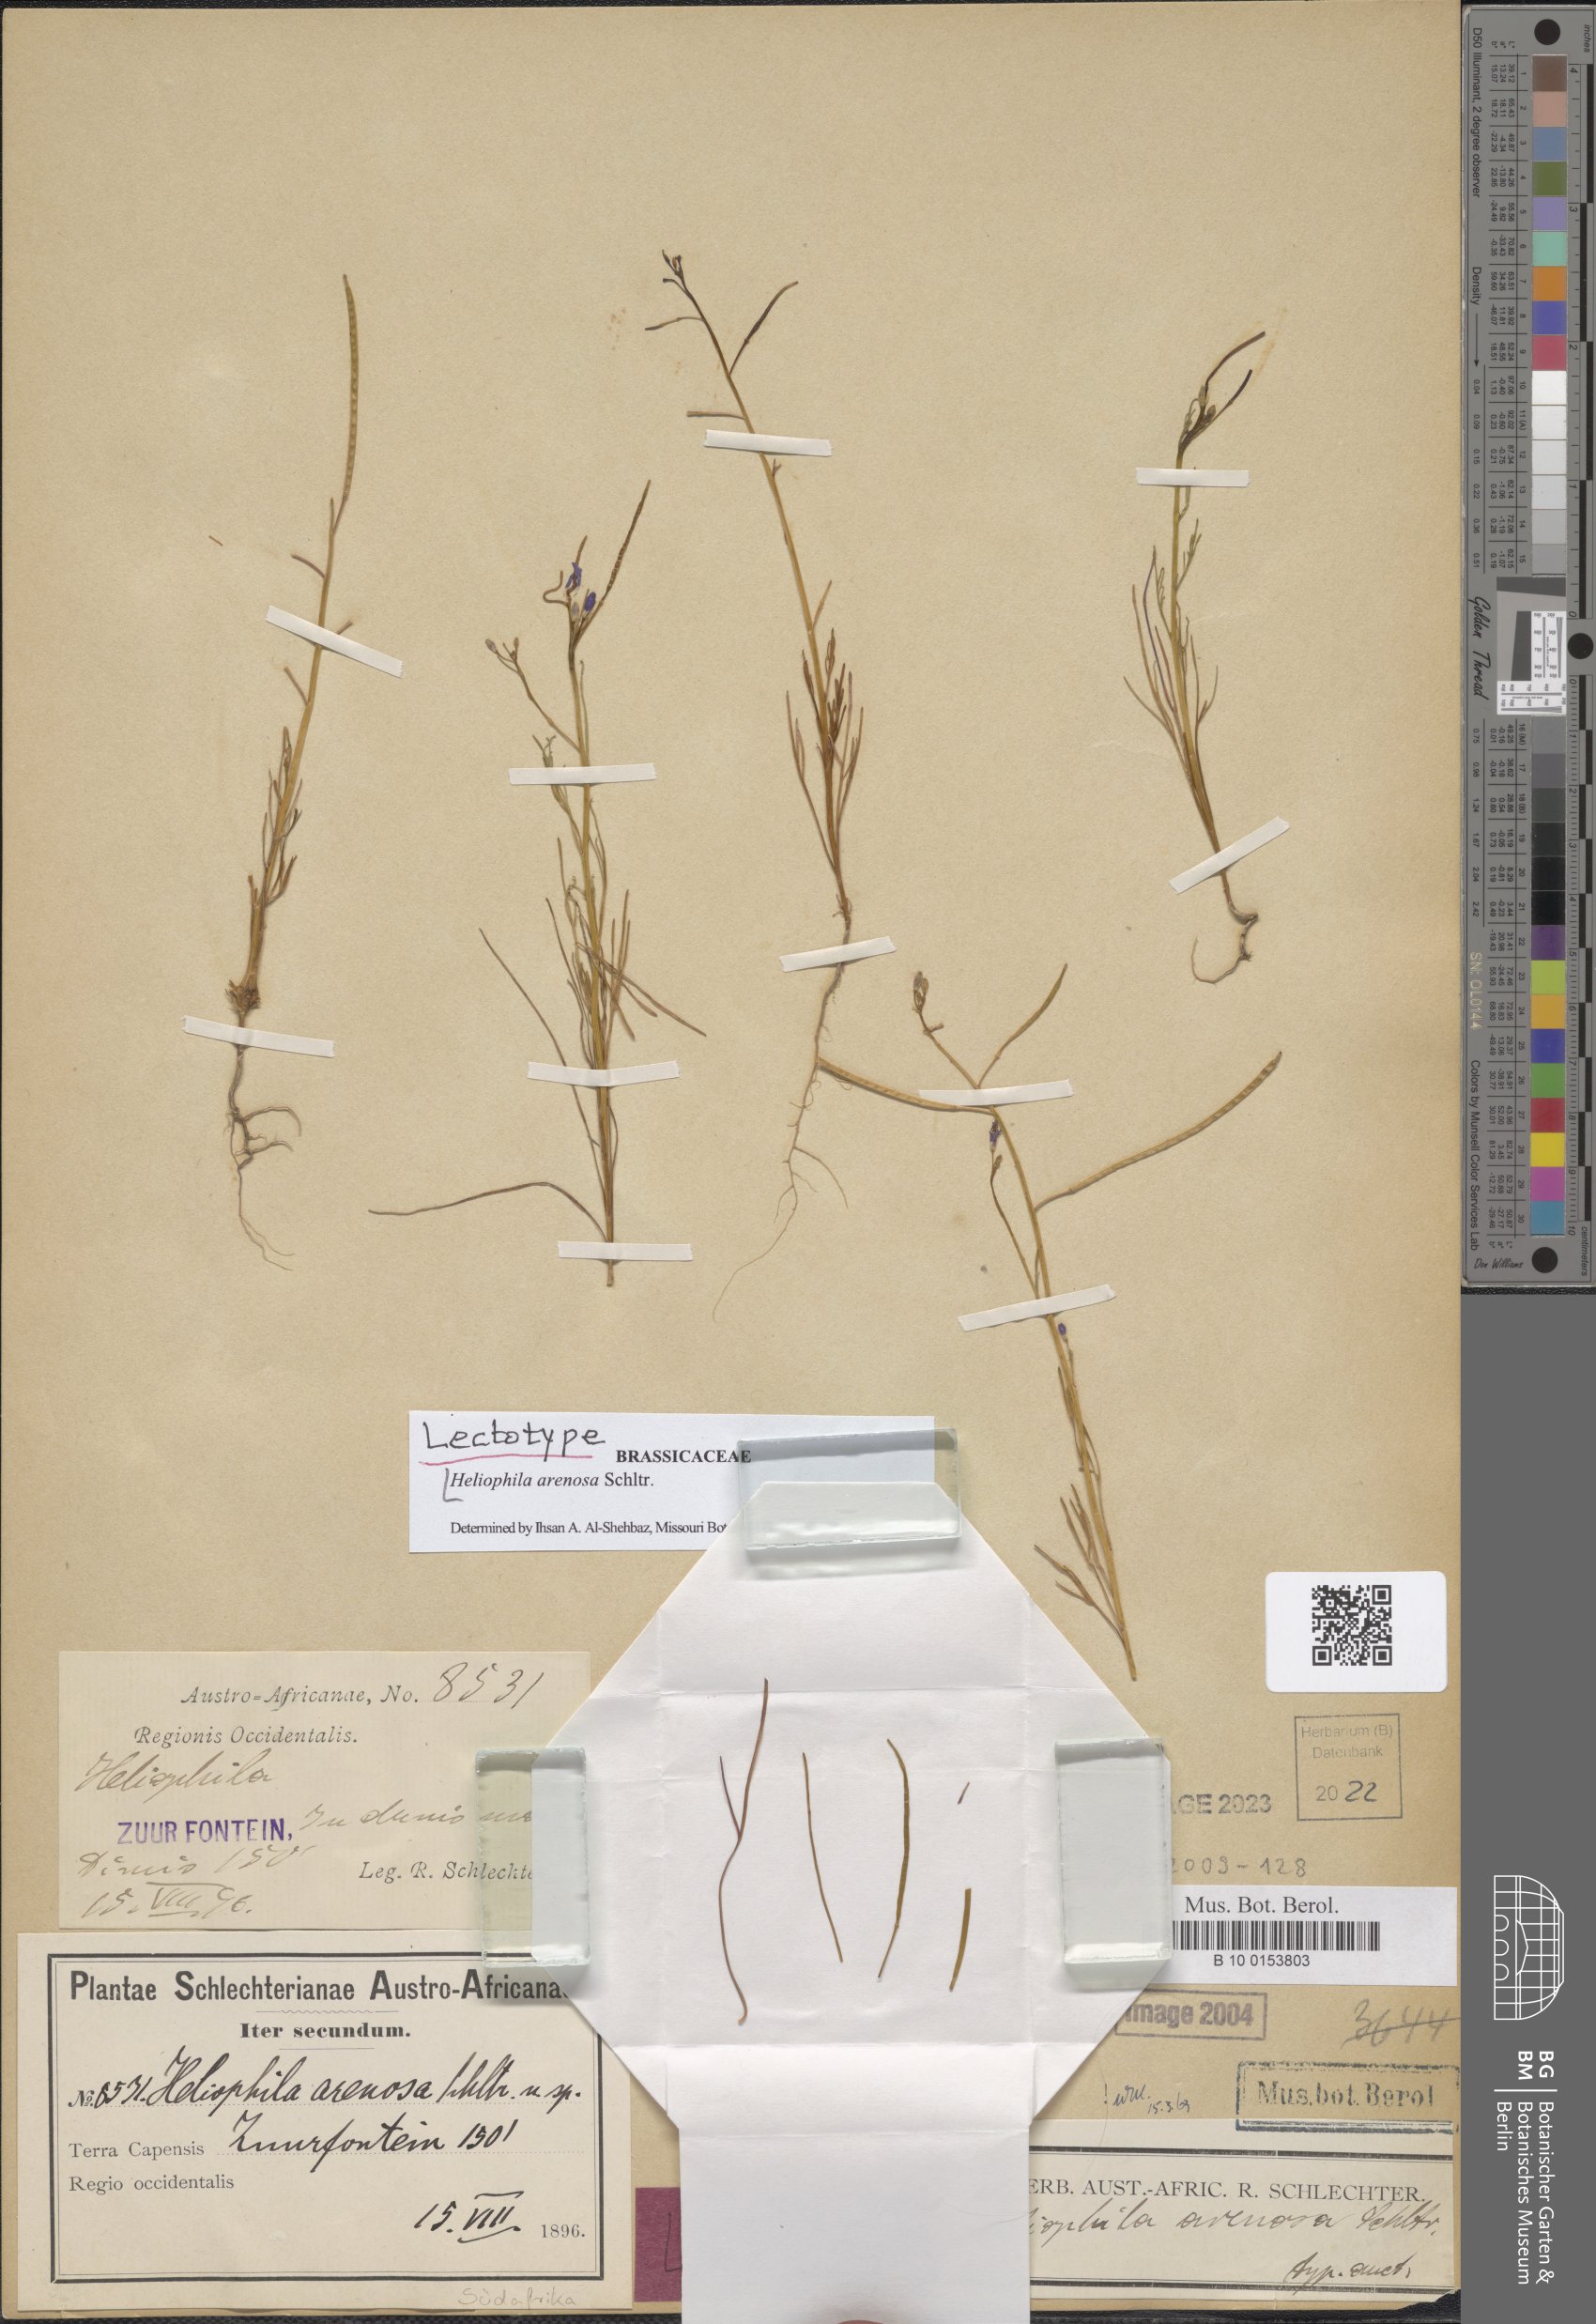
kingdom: Plantae
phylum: Tracheophyta
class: Magnoliopsida
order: Brassicales
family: Brassicaceae
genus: Heliophila
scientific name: Heliophila arenosa
